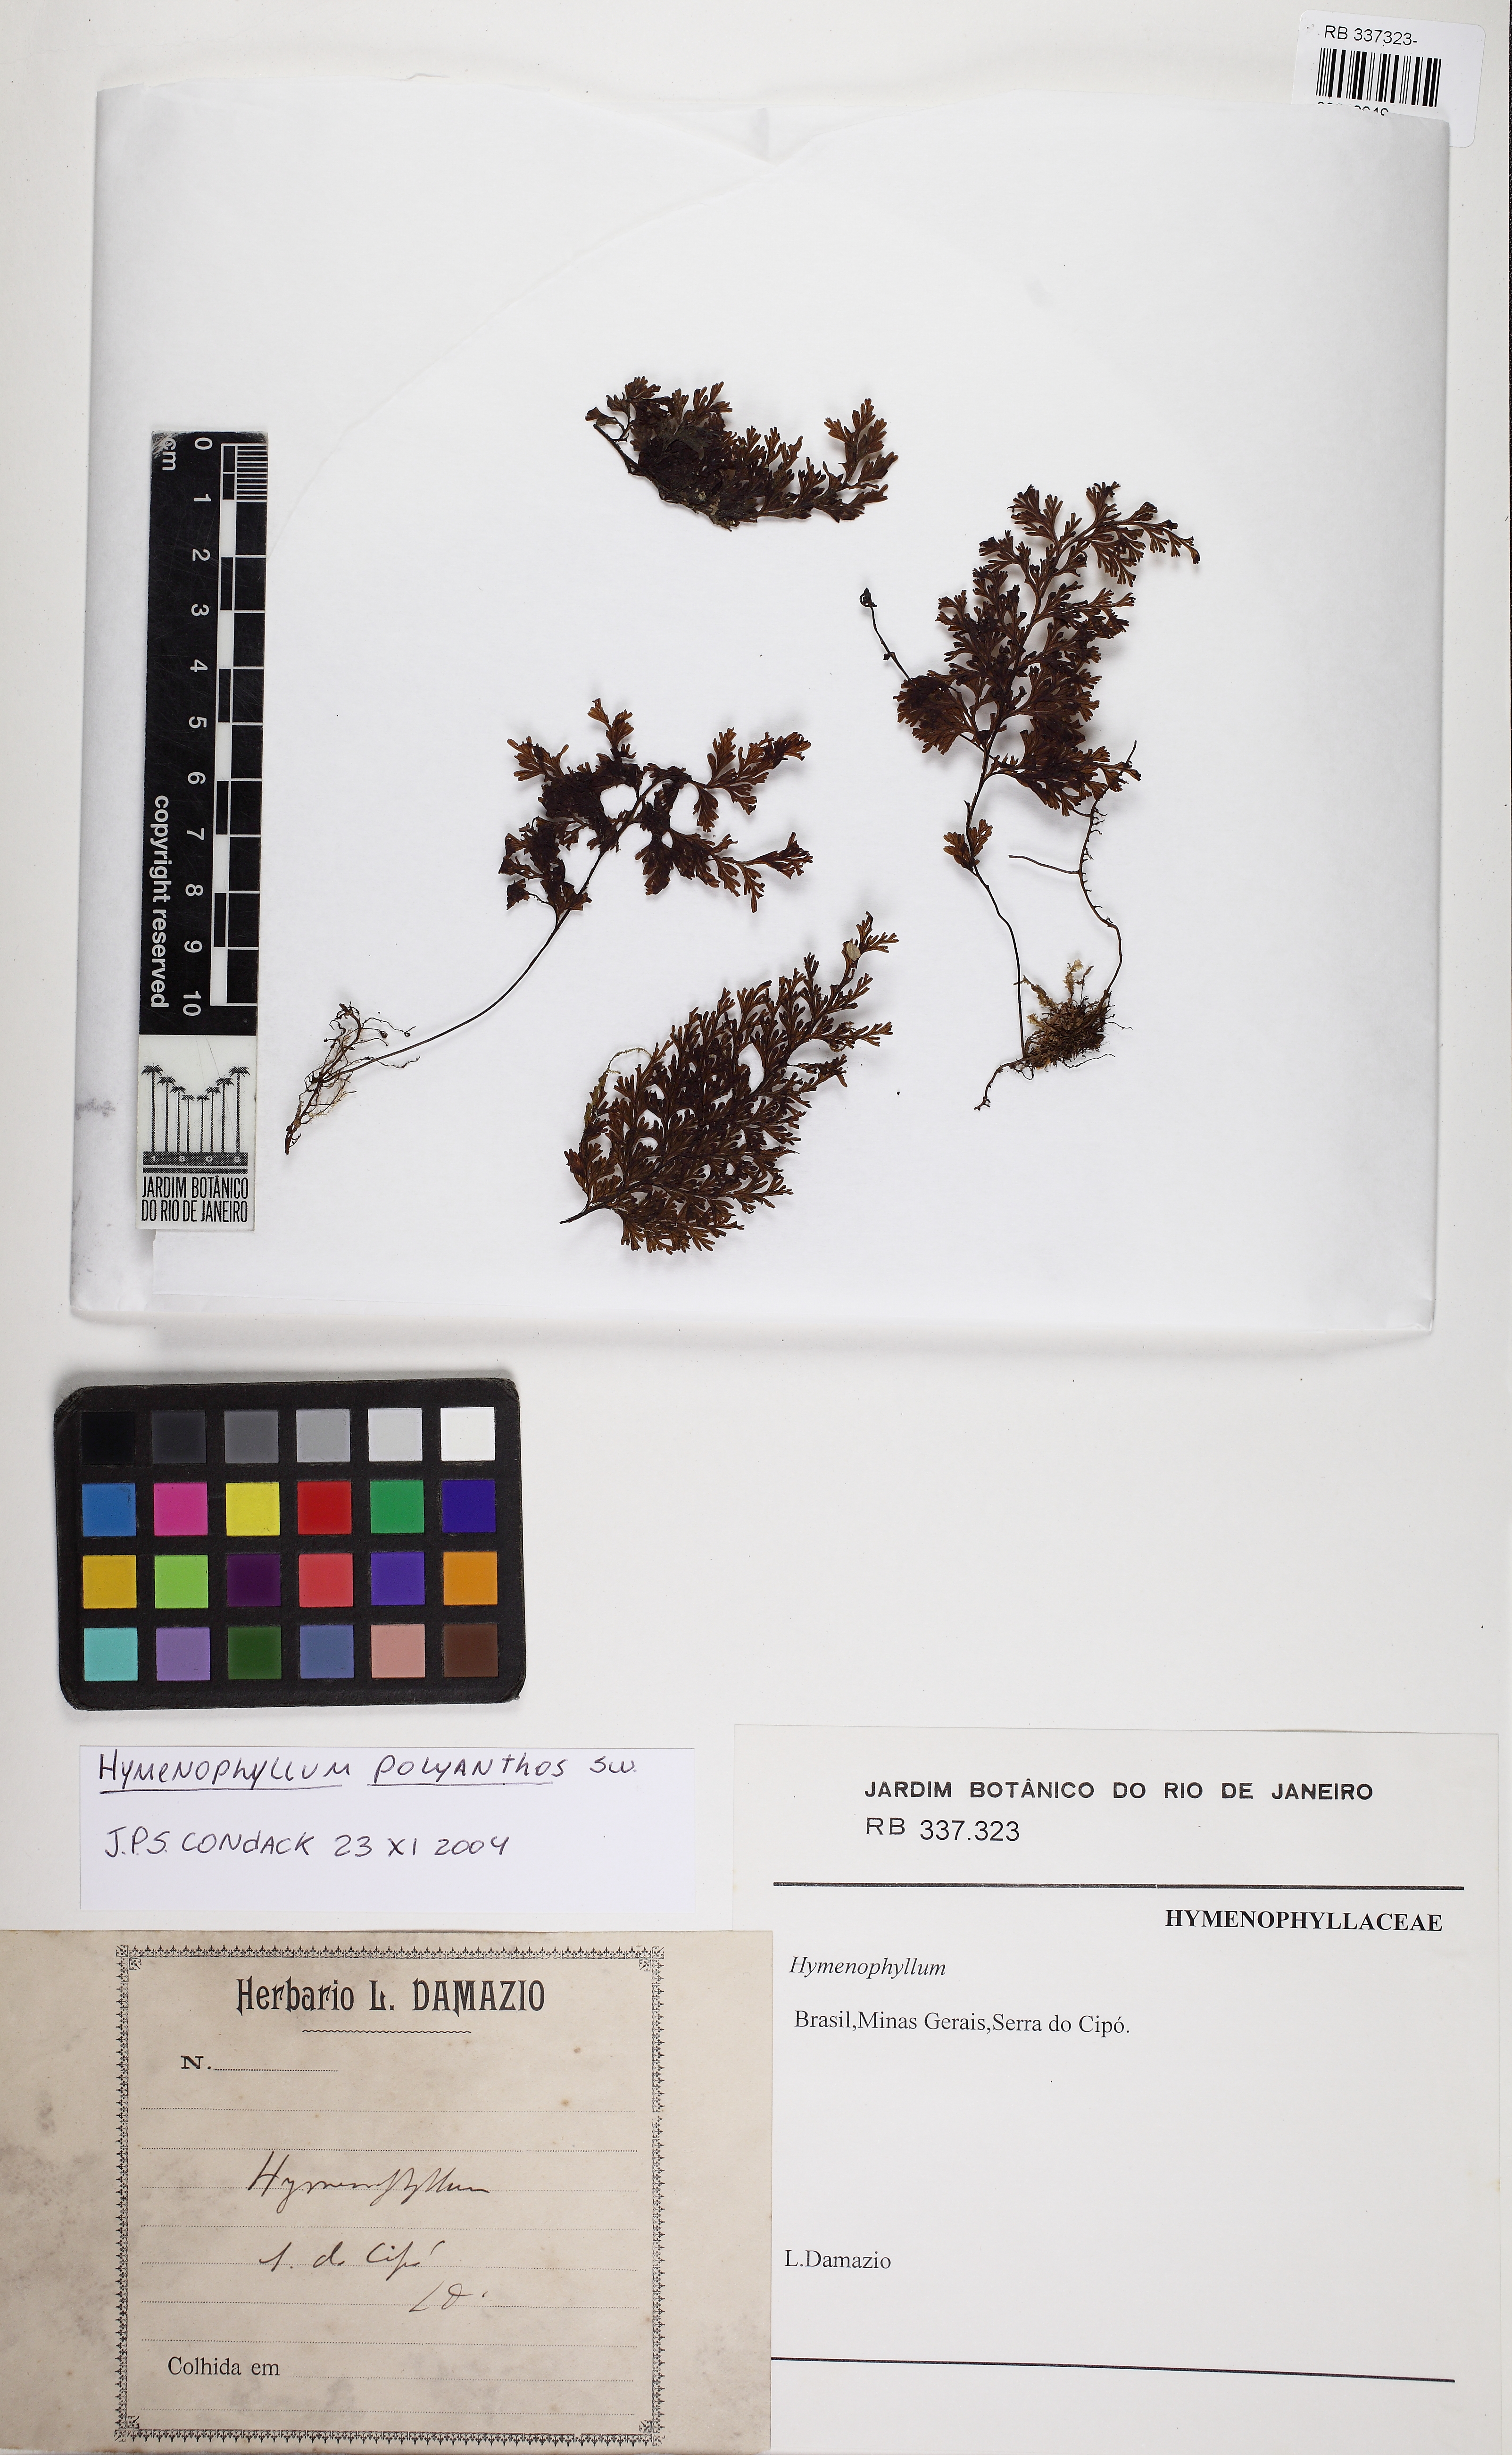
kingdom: Plantae
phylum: Tracheophyta
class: Polypodiopsida
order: Hymenophyllales
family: Hymenophyllaceae
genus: Hymenophyllum
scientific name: Hymenophyllum
